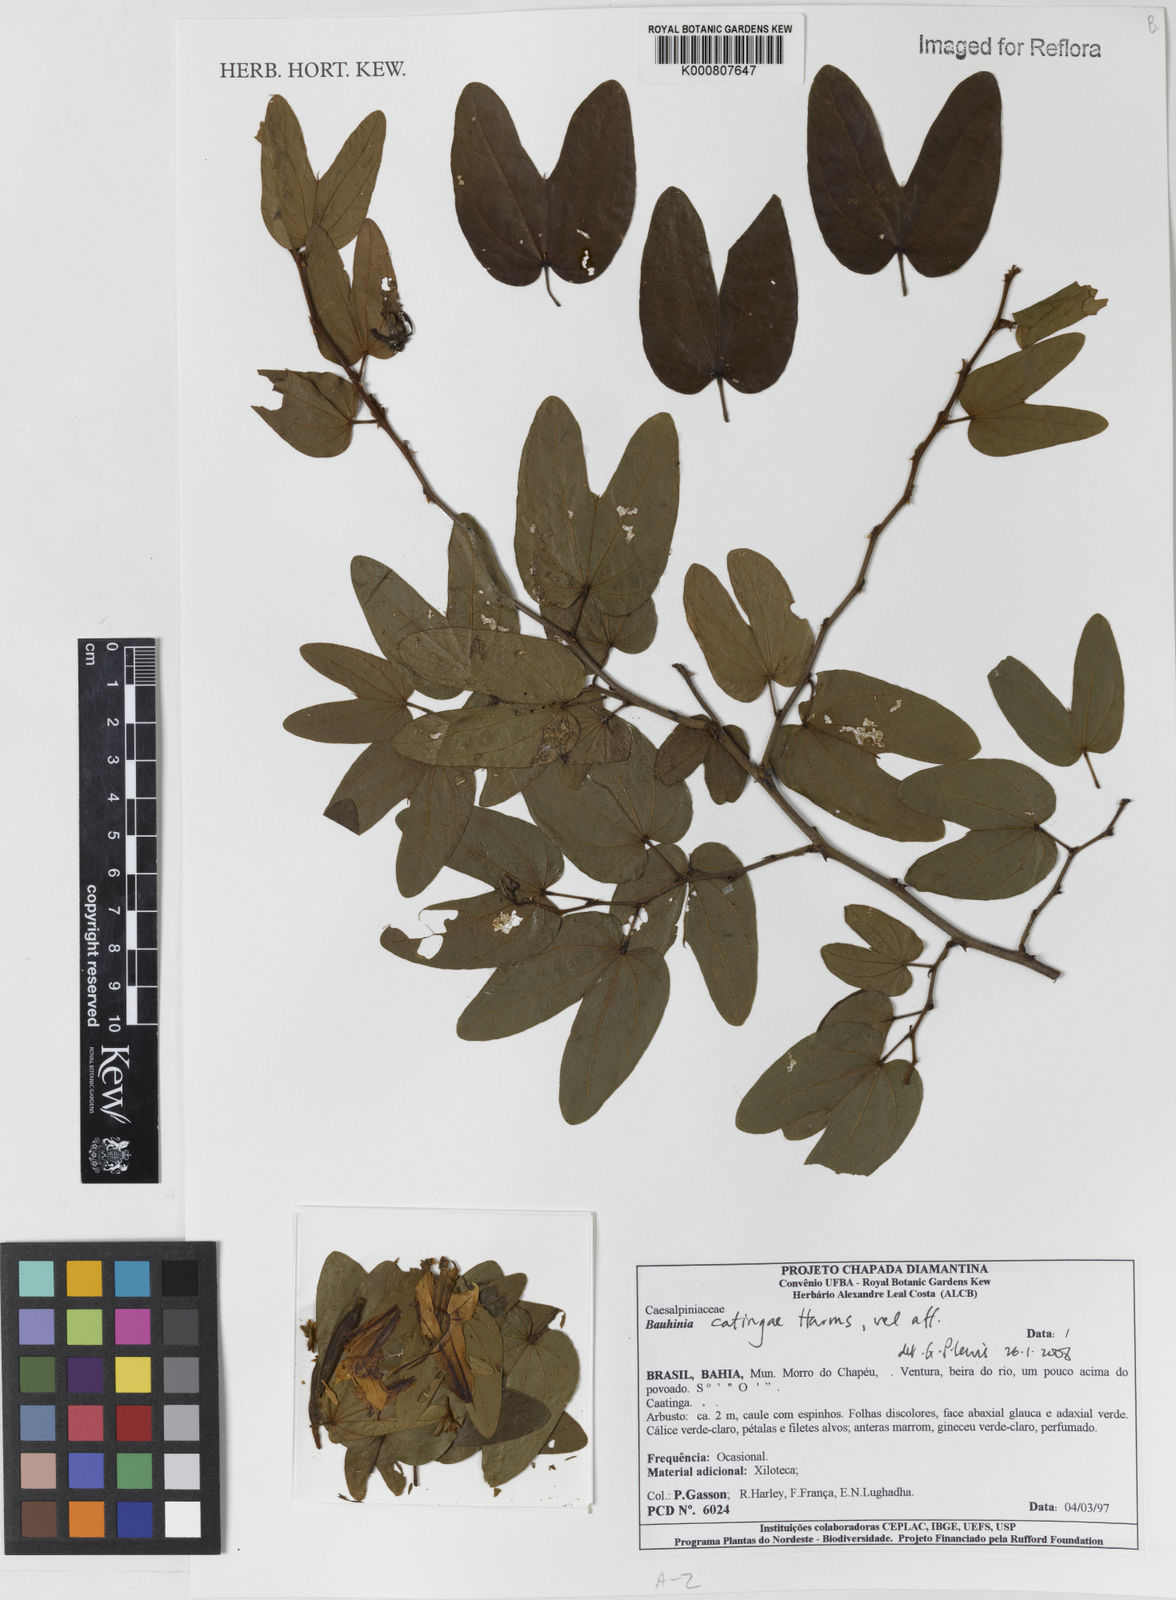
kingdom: Plantae
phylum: Tracheophyta
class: Magnoliopsida
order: Fabales
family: Fabaceae
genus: Bauhinia
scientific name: Bauhinia catingae
